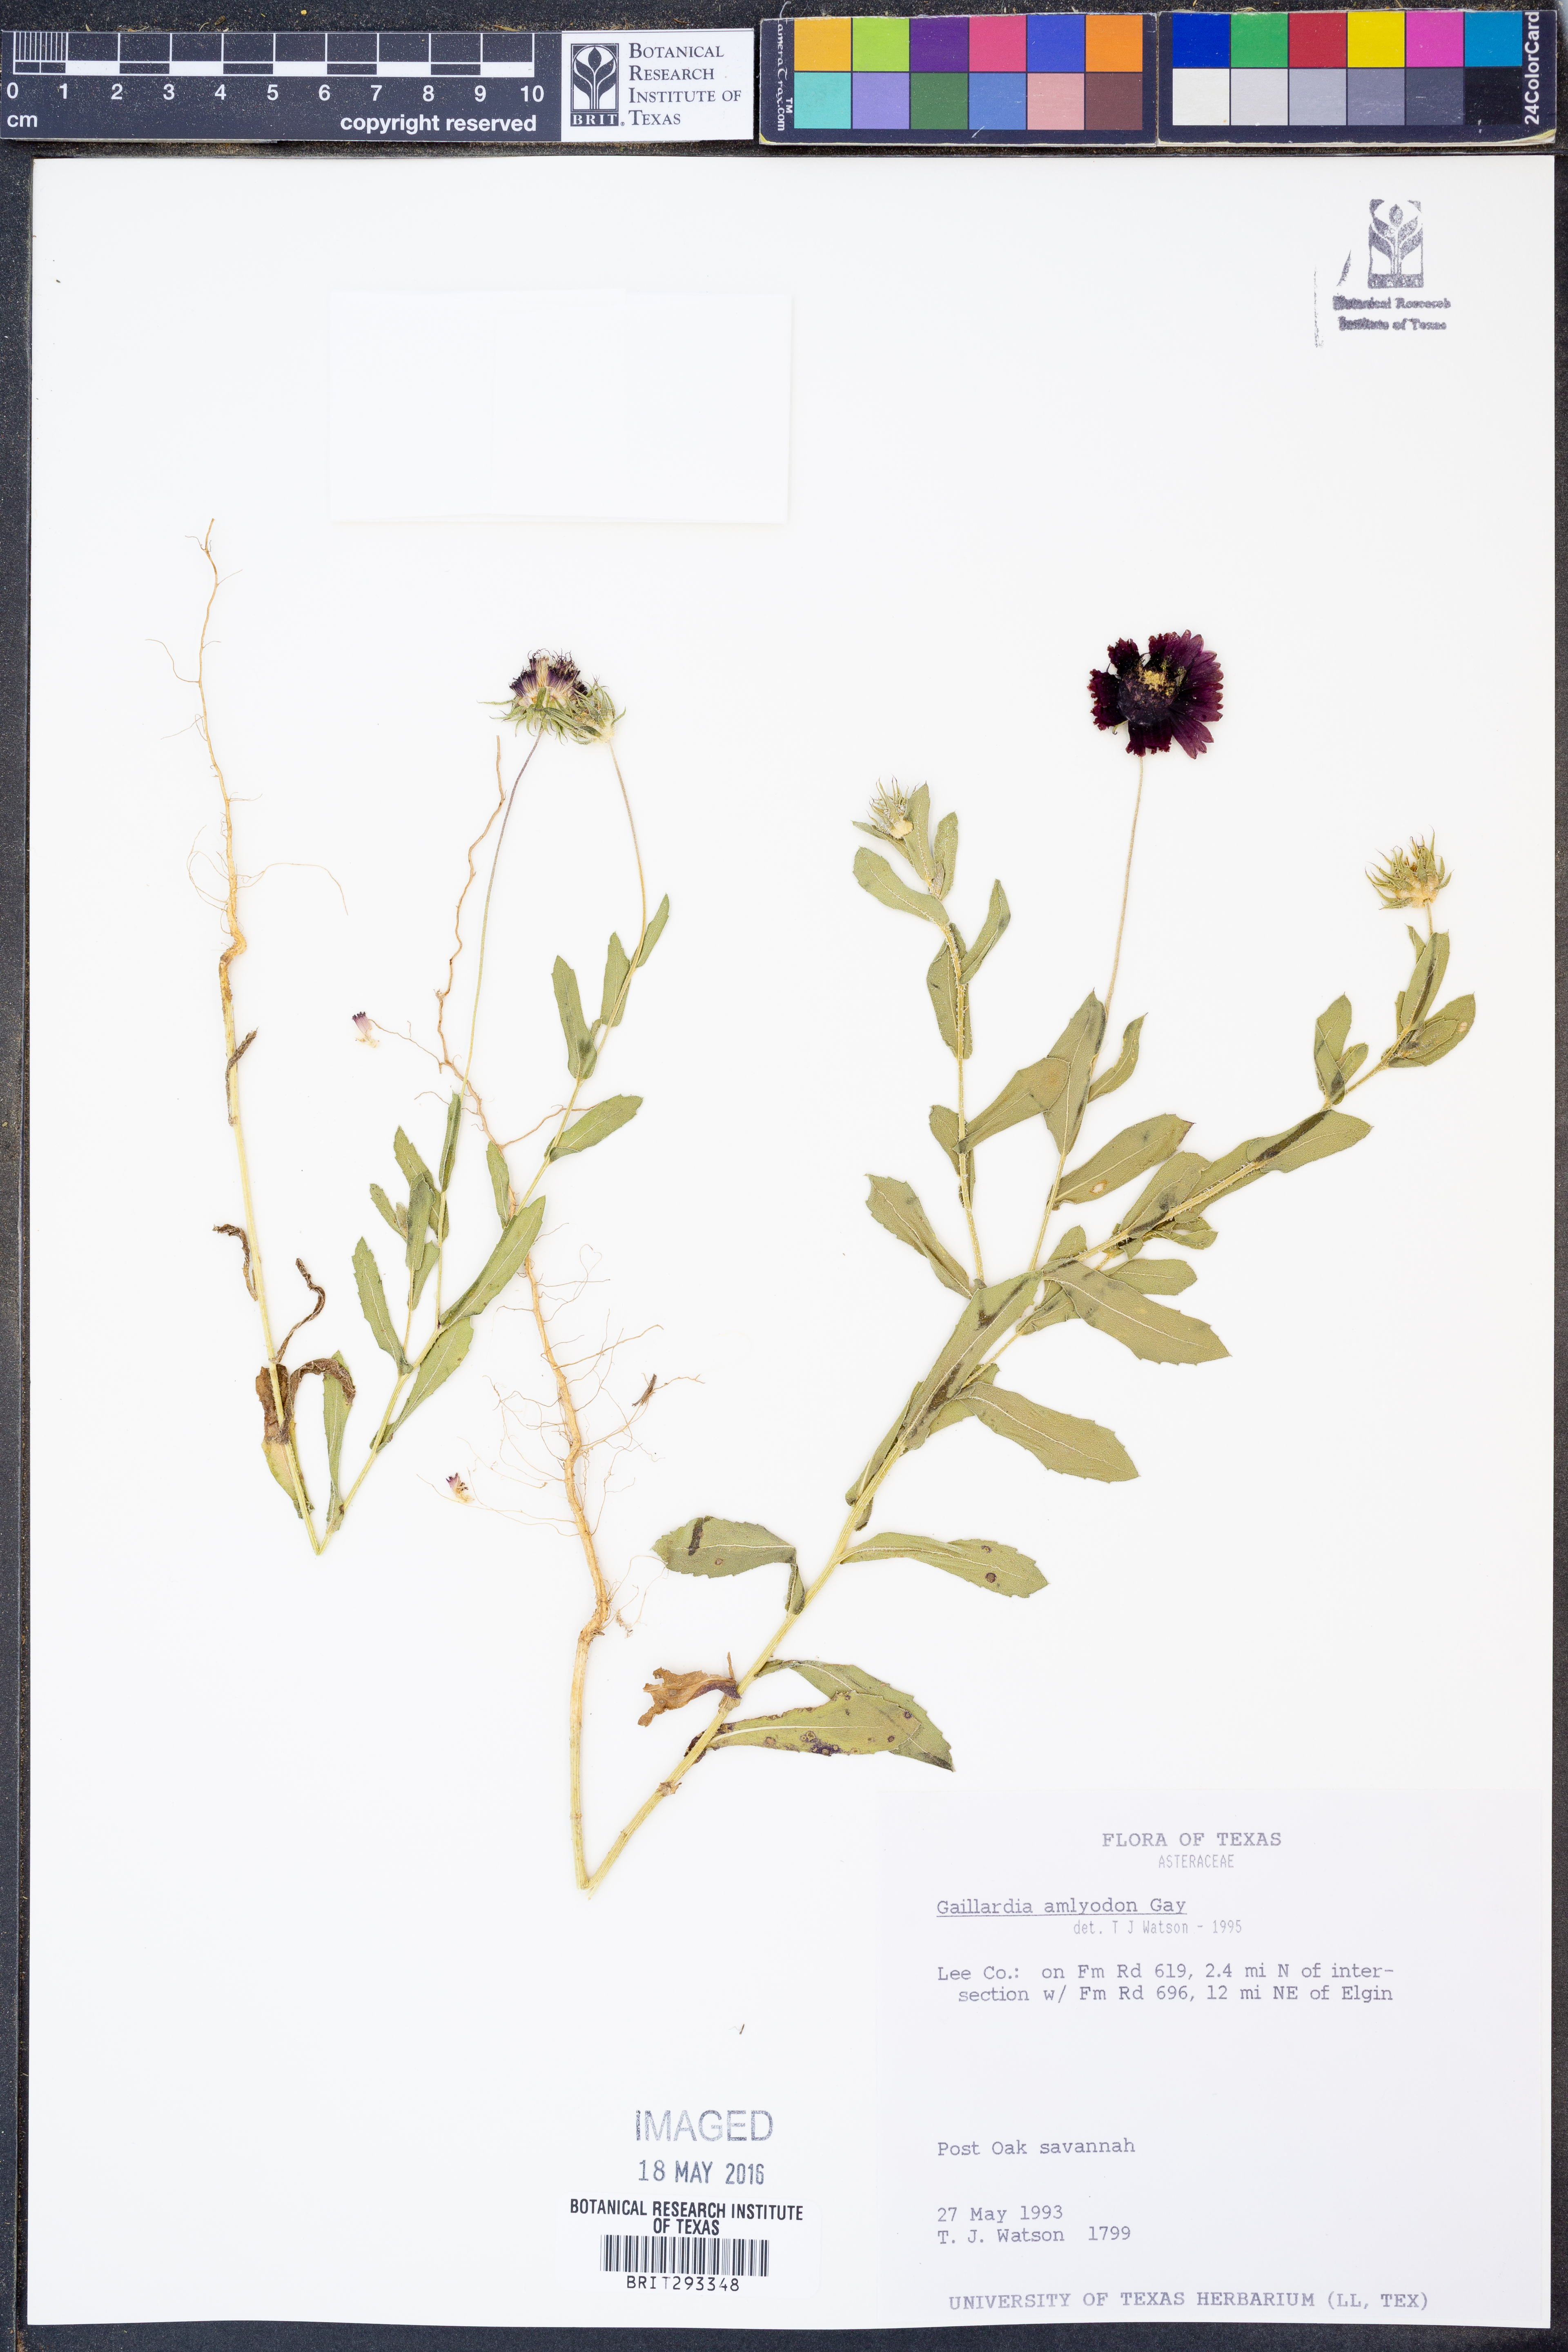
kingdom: Plantae
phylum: Tracheophyta
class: Magnoliopsida
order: Asterales
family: Asteraceae
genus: Gaillardia
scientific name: Gaillardia amblyodon
